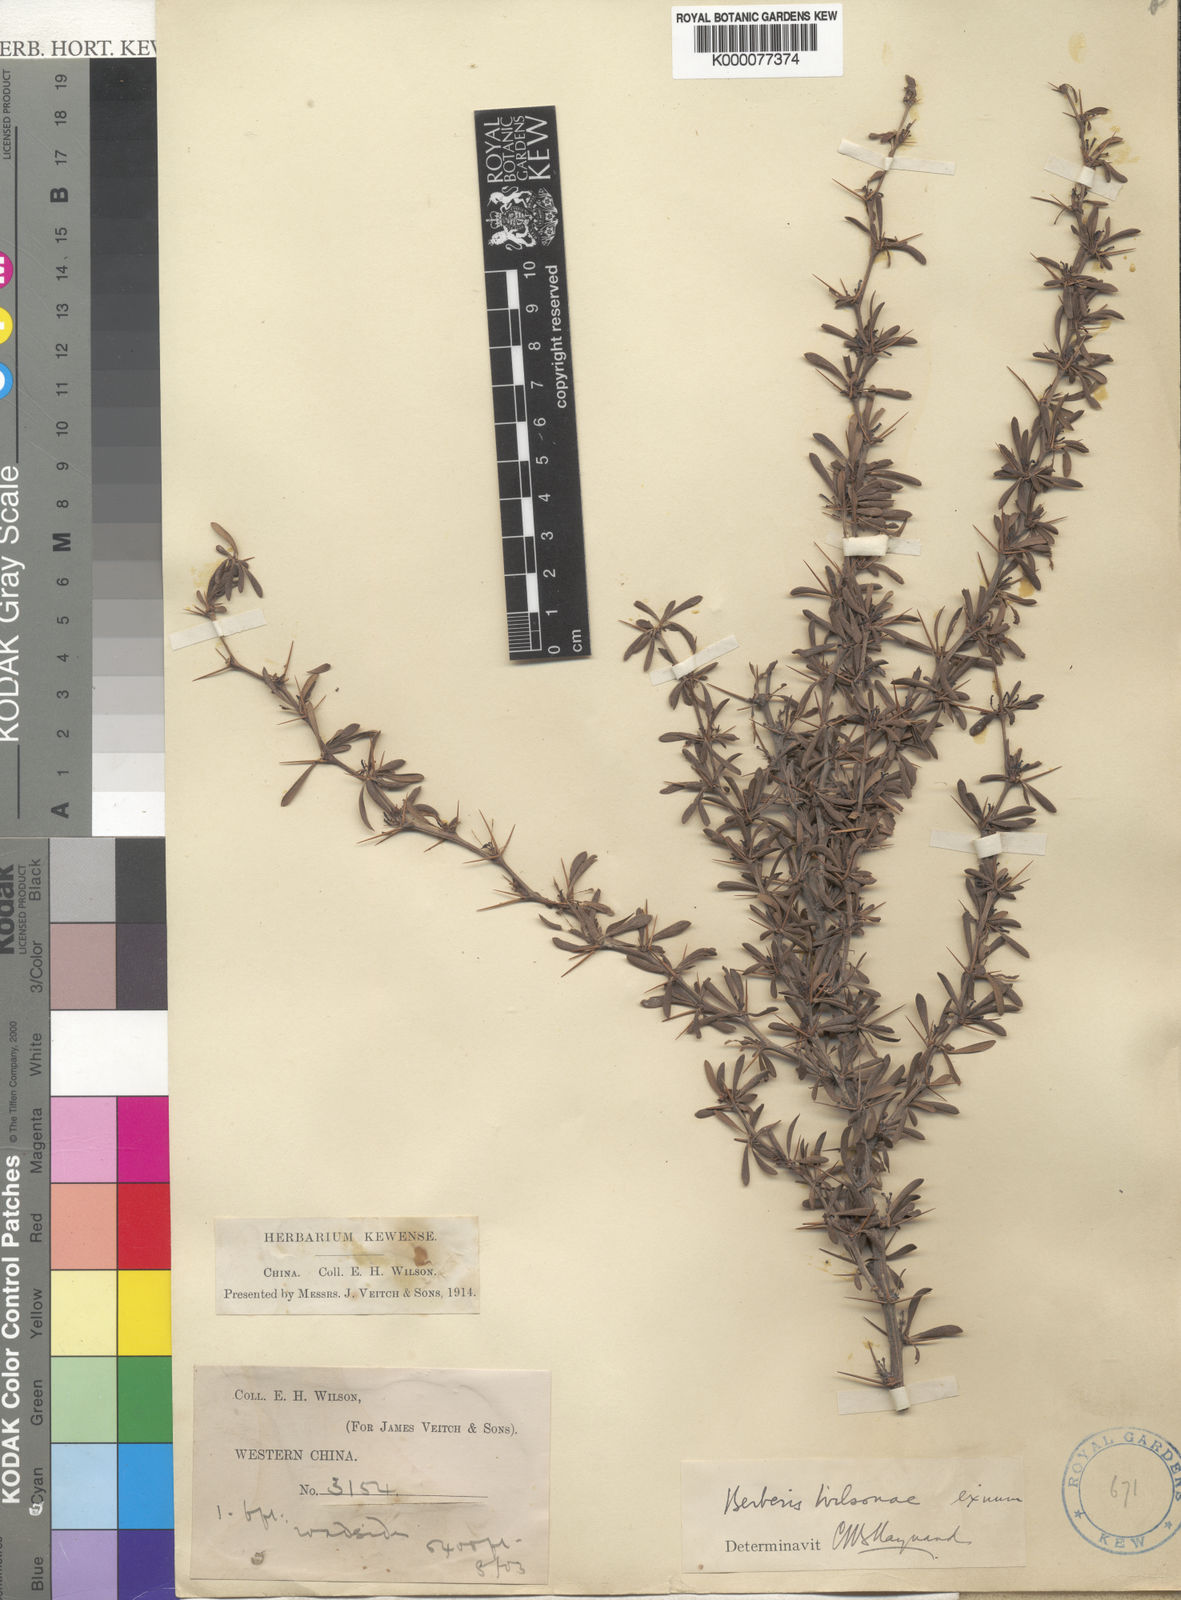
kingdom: Plantae
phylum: Tracheophyta
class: Magnoliopsida
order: Ranunculales
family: Berberidaceae
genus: Berberis
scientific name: Berberis wilsoniae
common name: Mrs wilson's barberry
